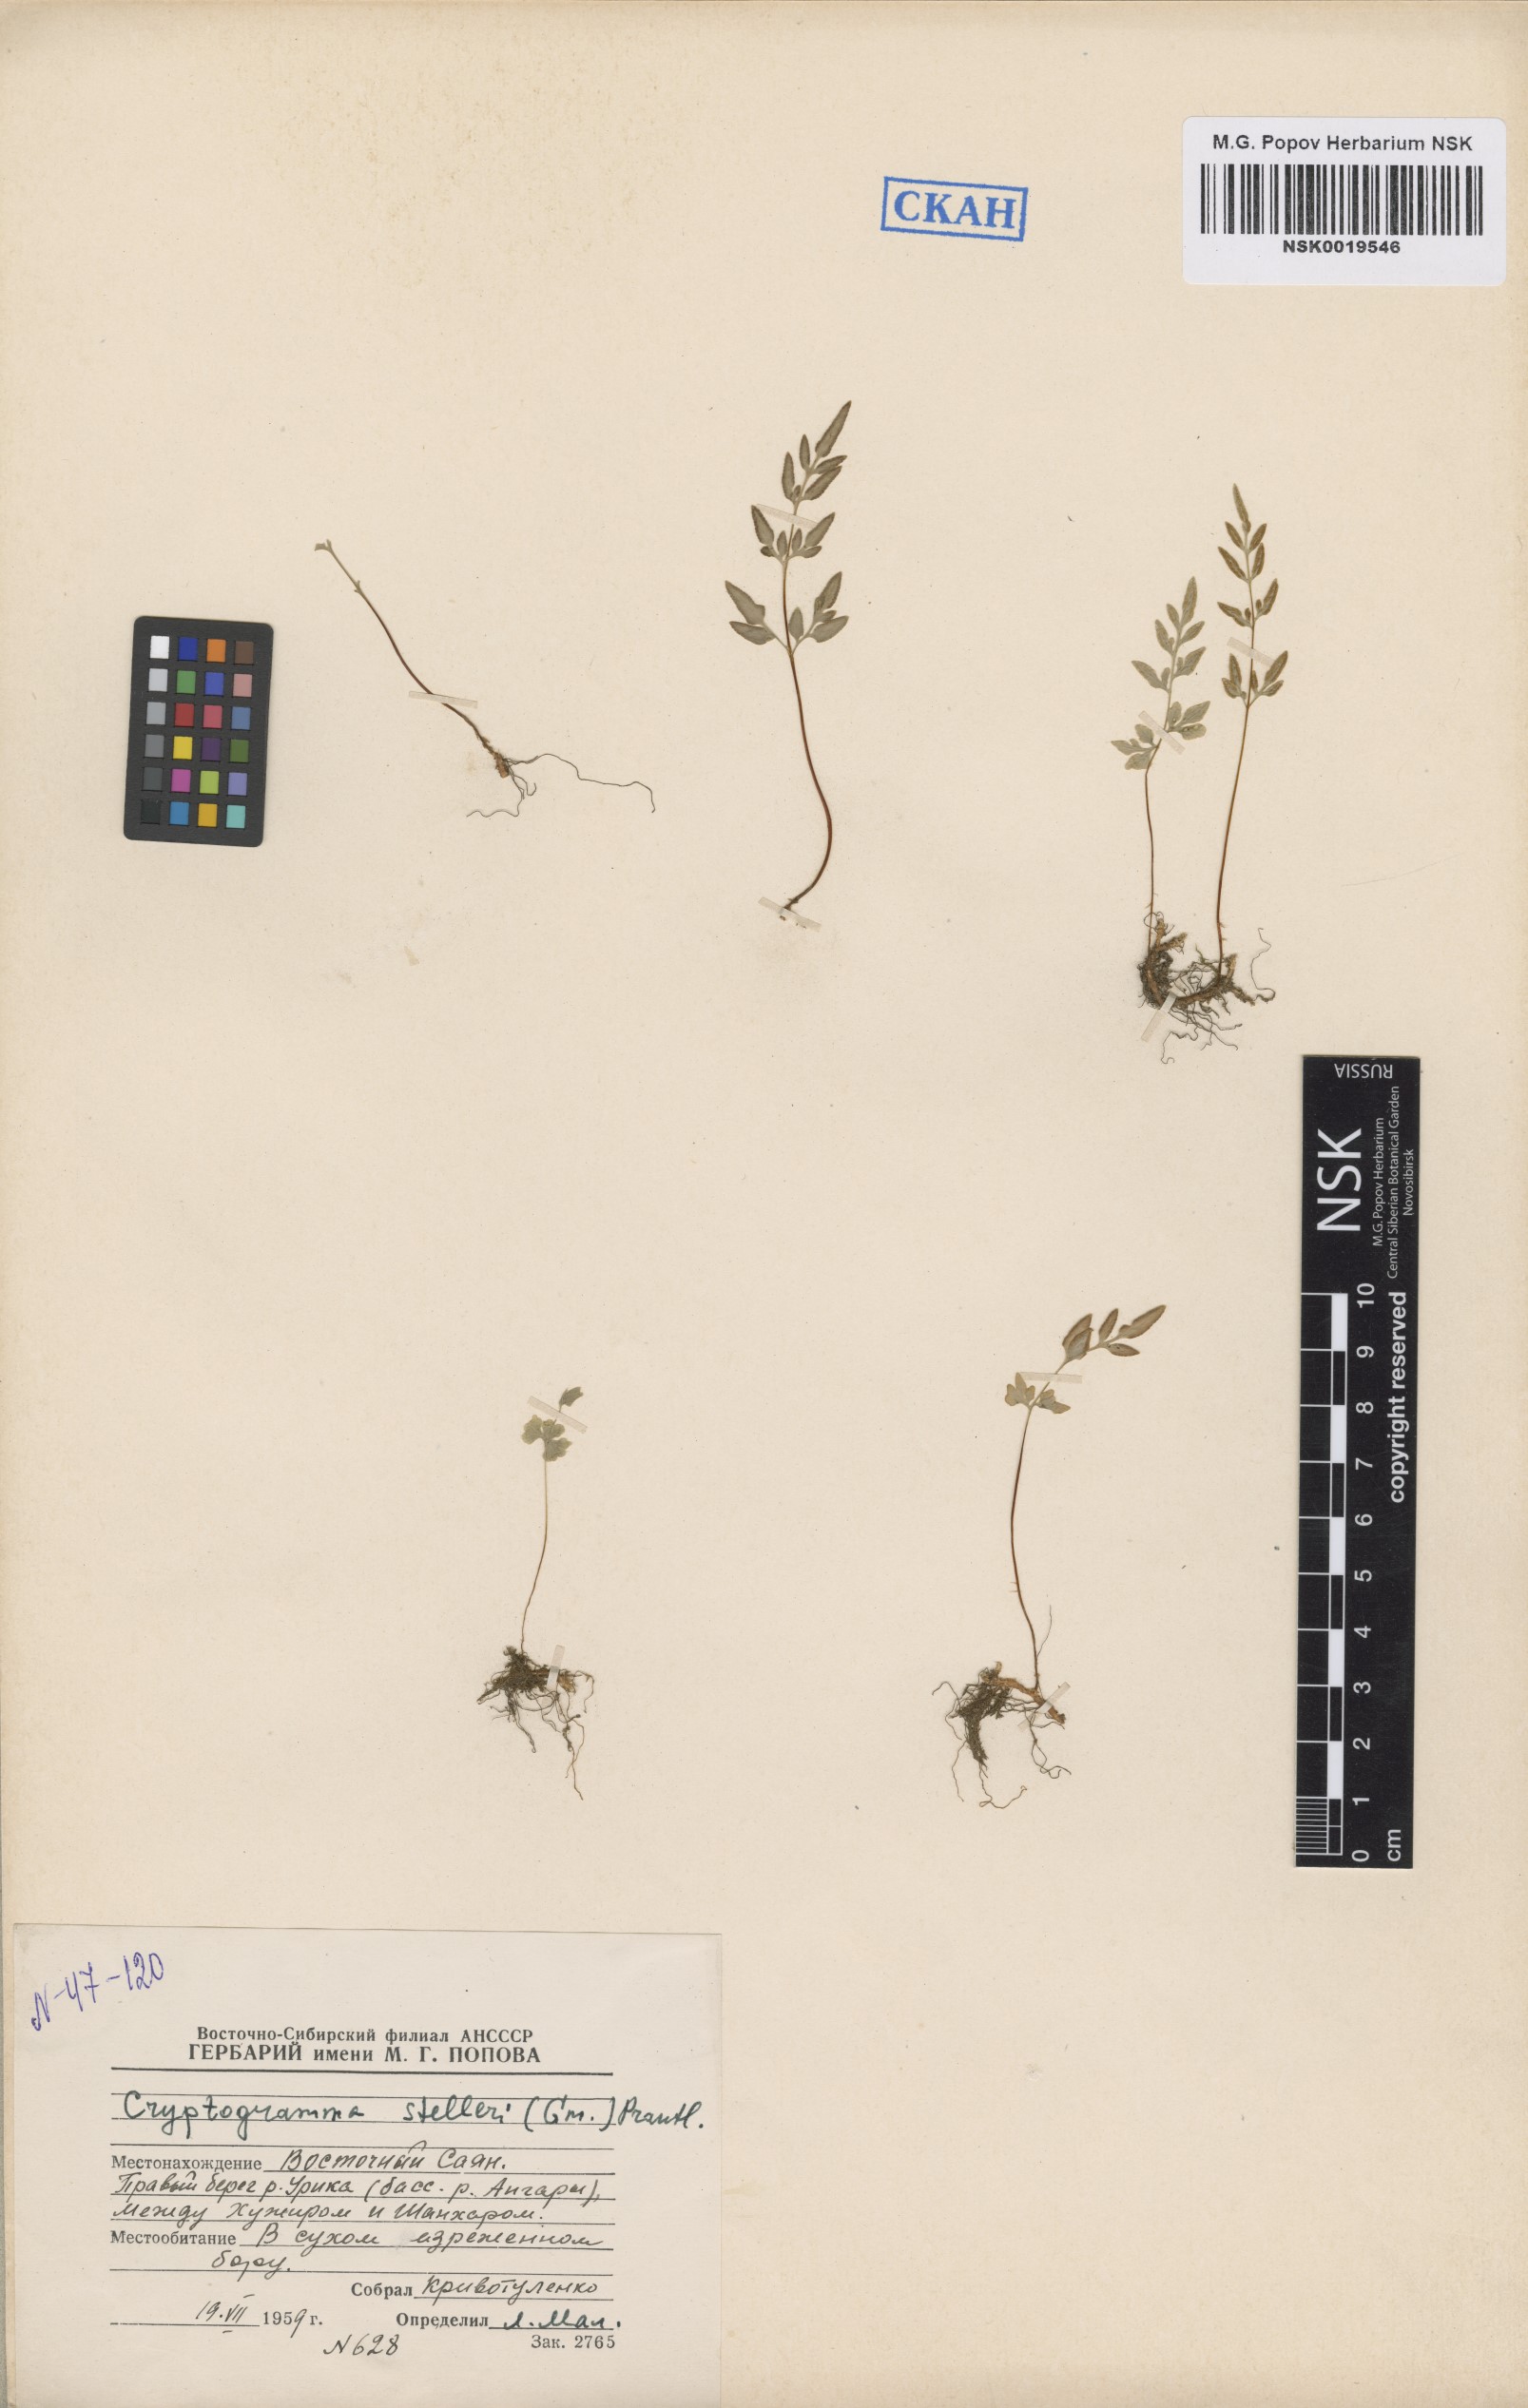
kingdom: Plantae
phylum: Tracheophyta
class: Polypodiopsida
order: Polypodiales
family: Pteridaceae
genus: Cryptogramma
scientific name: Cryptogramma stelleri
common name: Cliff-brake
